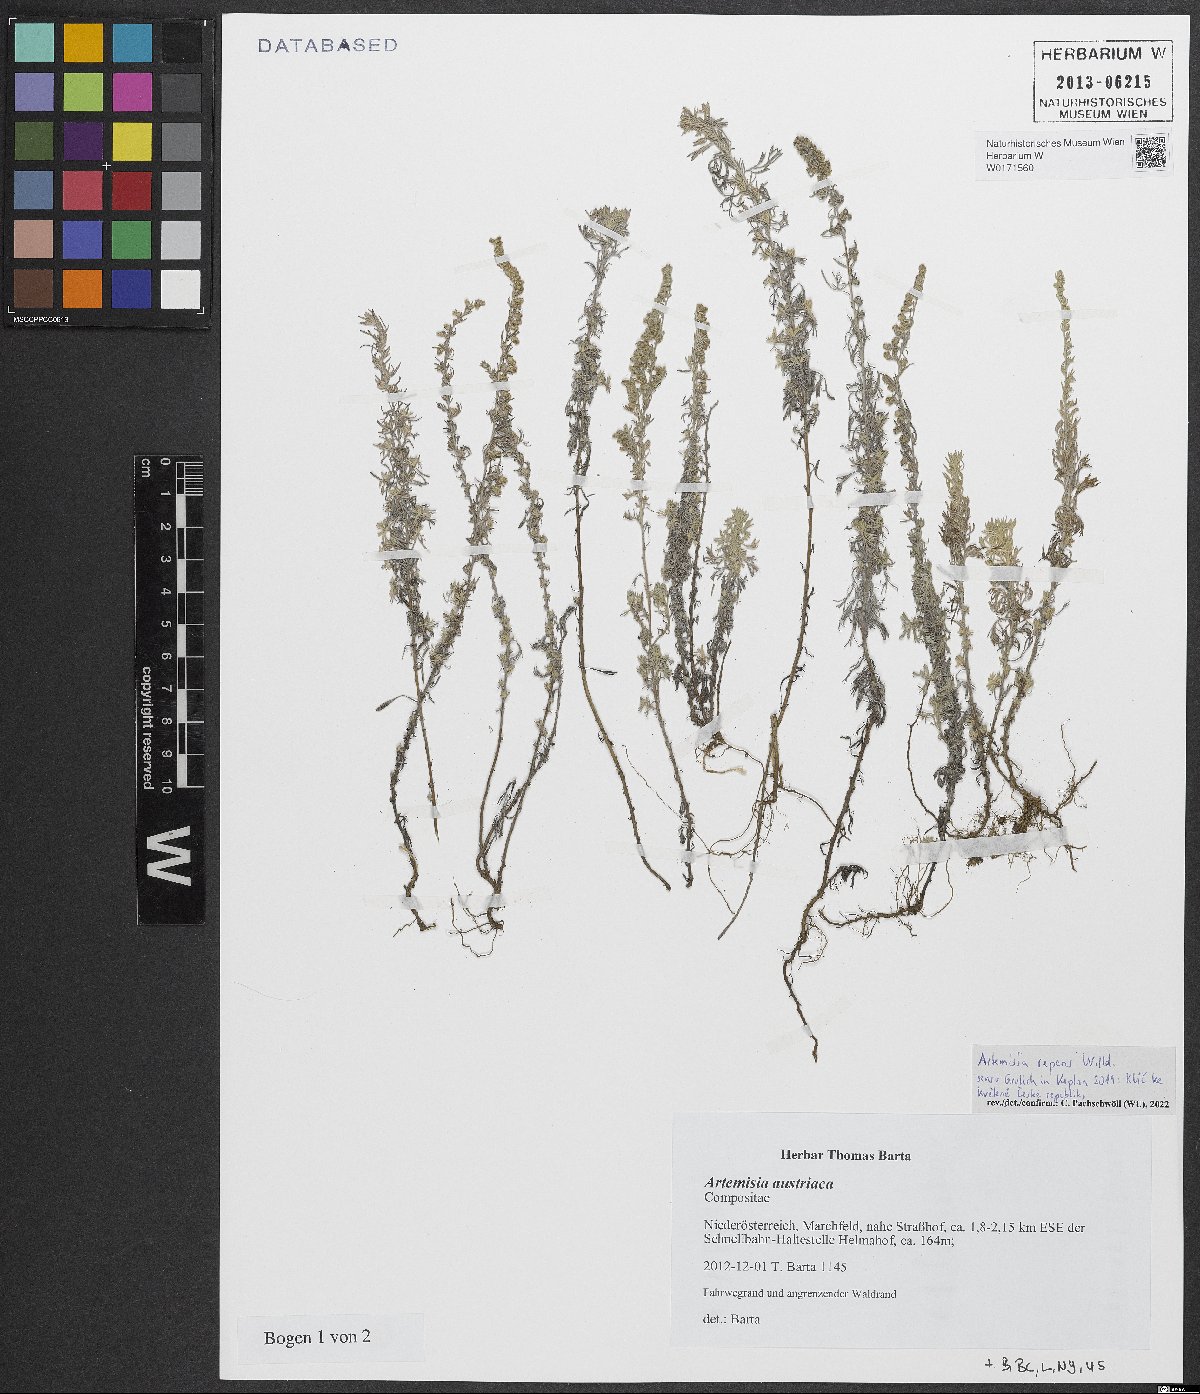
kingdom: Plantae
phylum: Tracheophyta
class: Magnoliopsida
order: Asterales
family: Asteraceae
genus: Artemisia
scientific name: Artemisia repens
